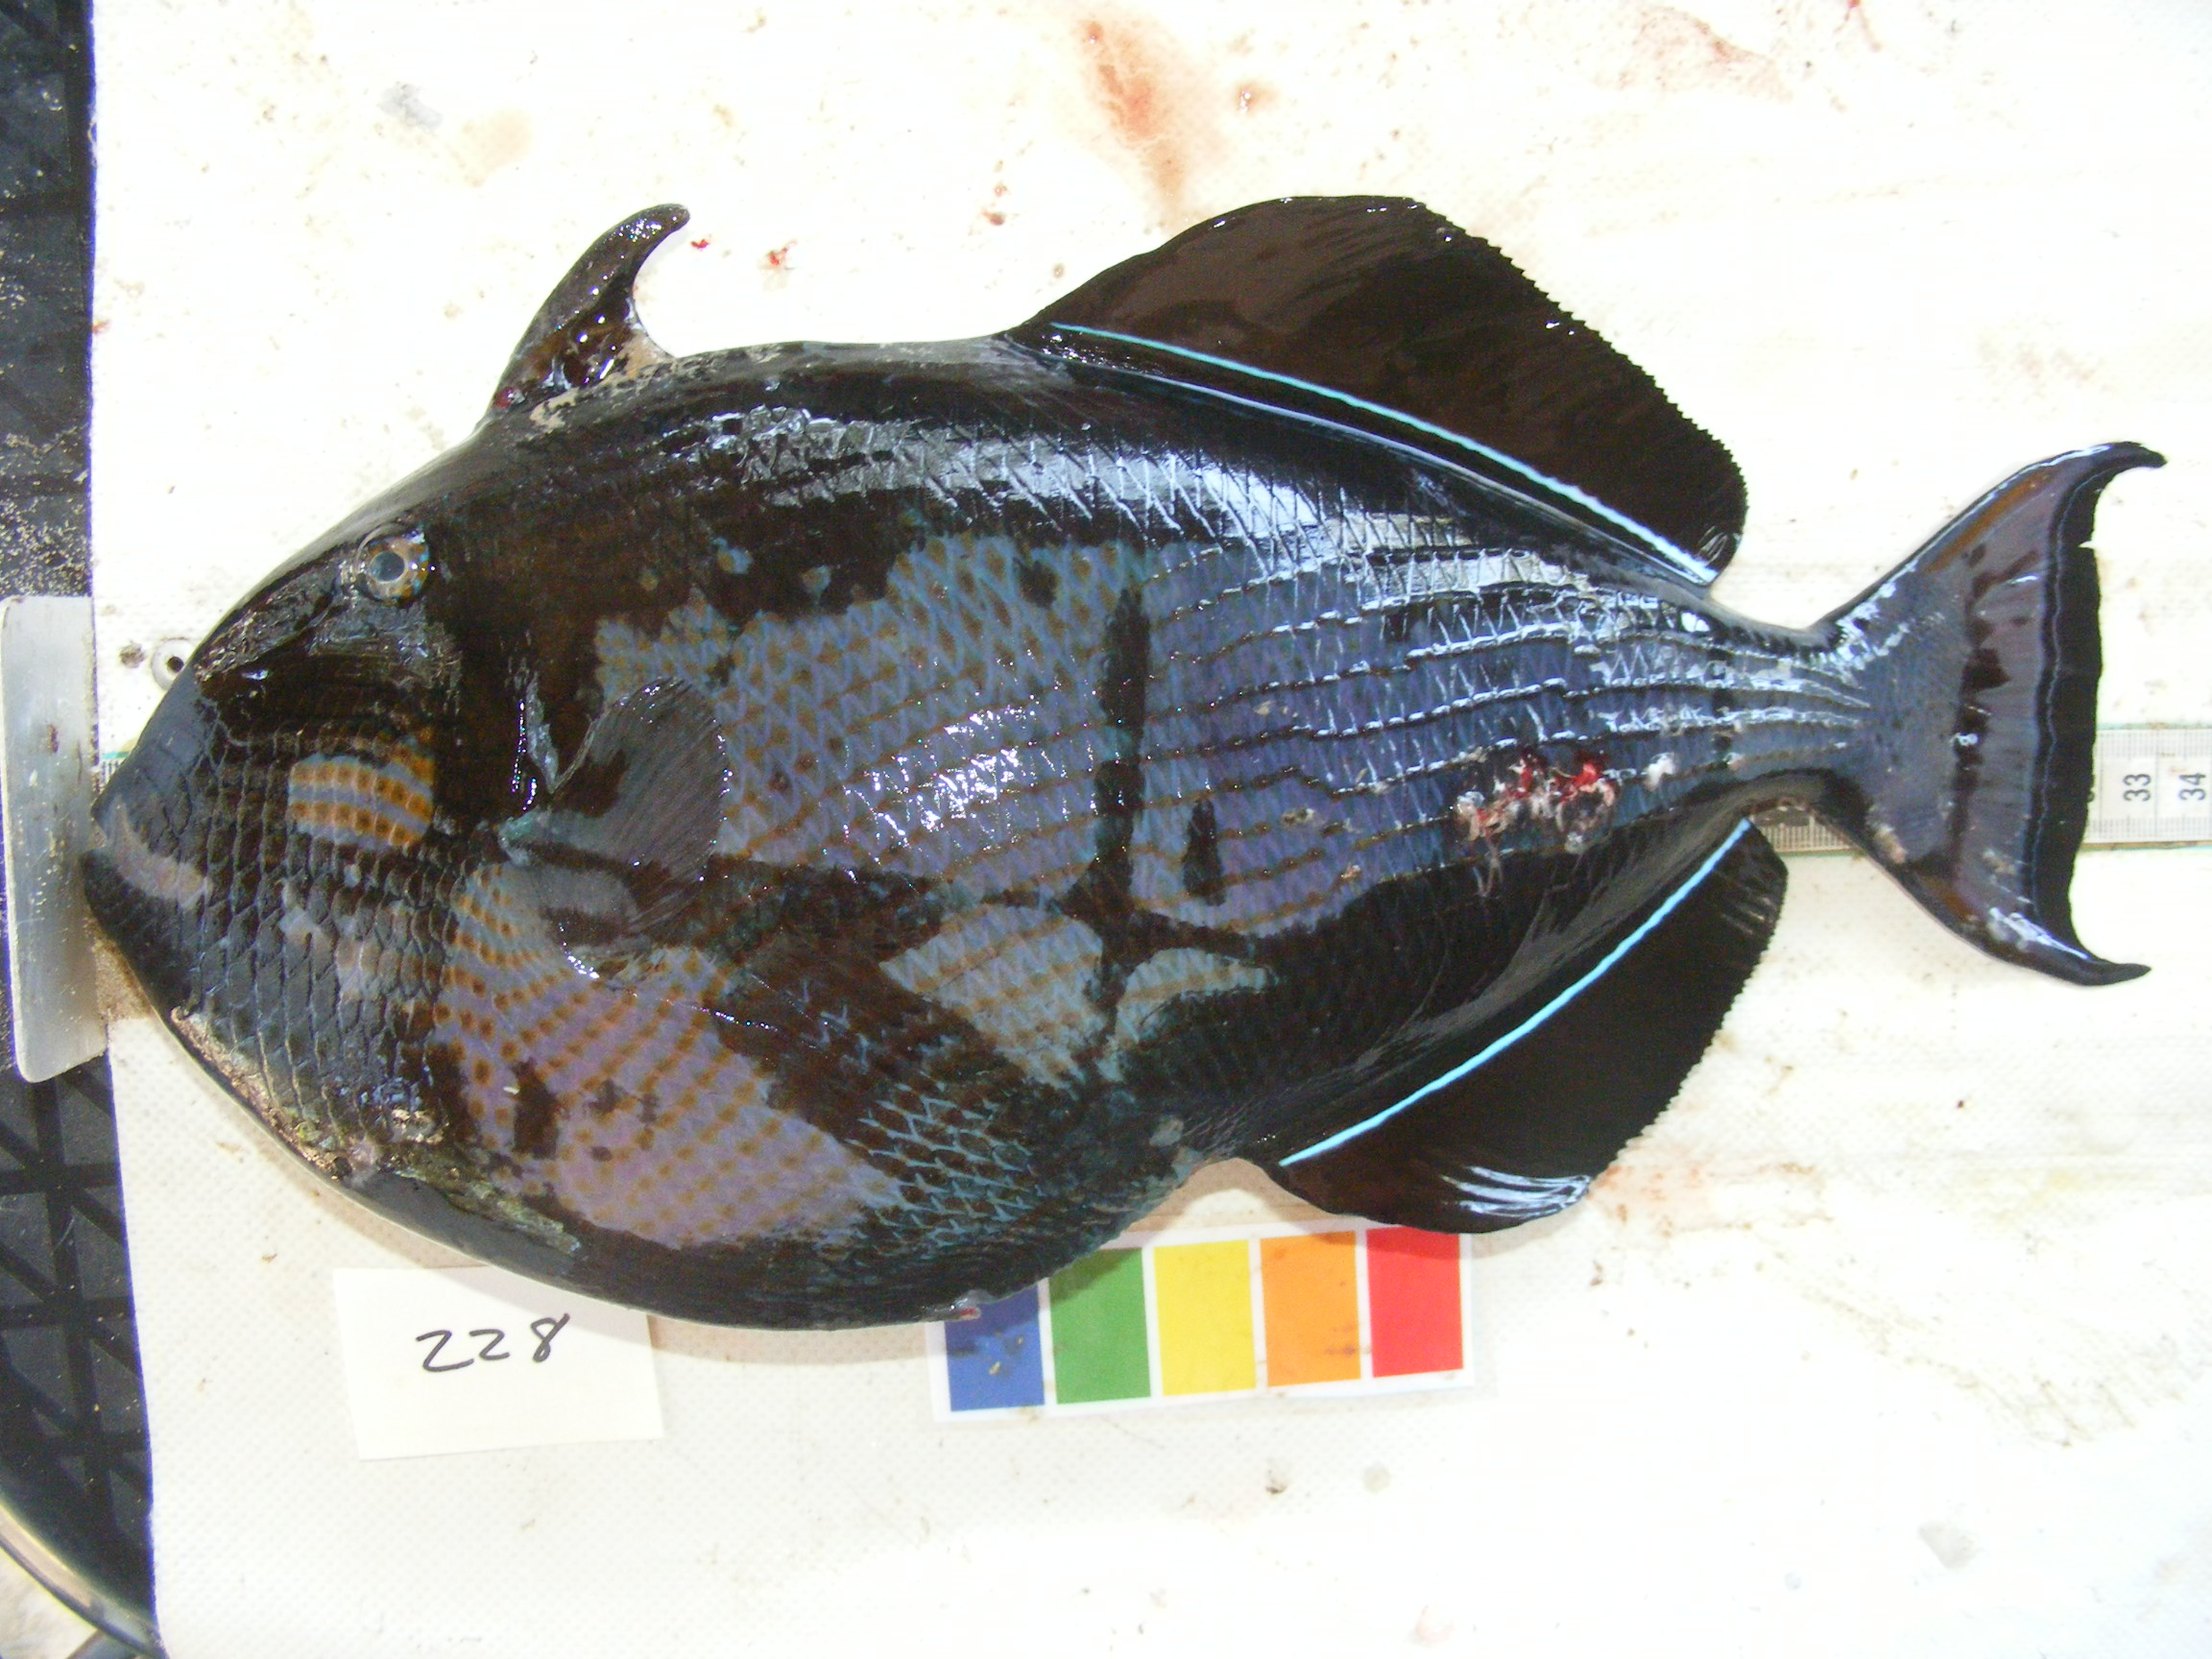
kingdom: Animalia
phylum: Chordata
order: Tetraodontiformes
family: Balistidae
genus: Melichthys
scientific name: Melichthys niger
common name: Black durgon
